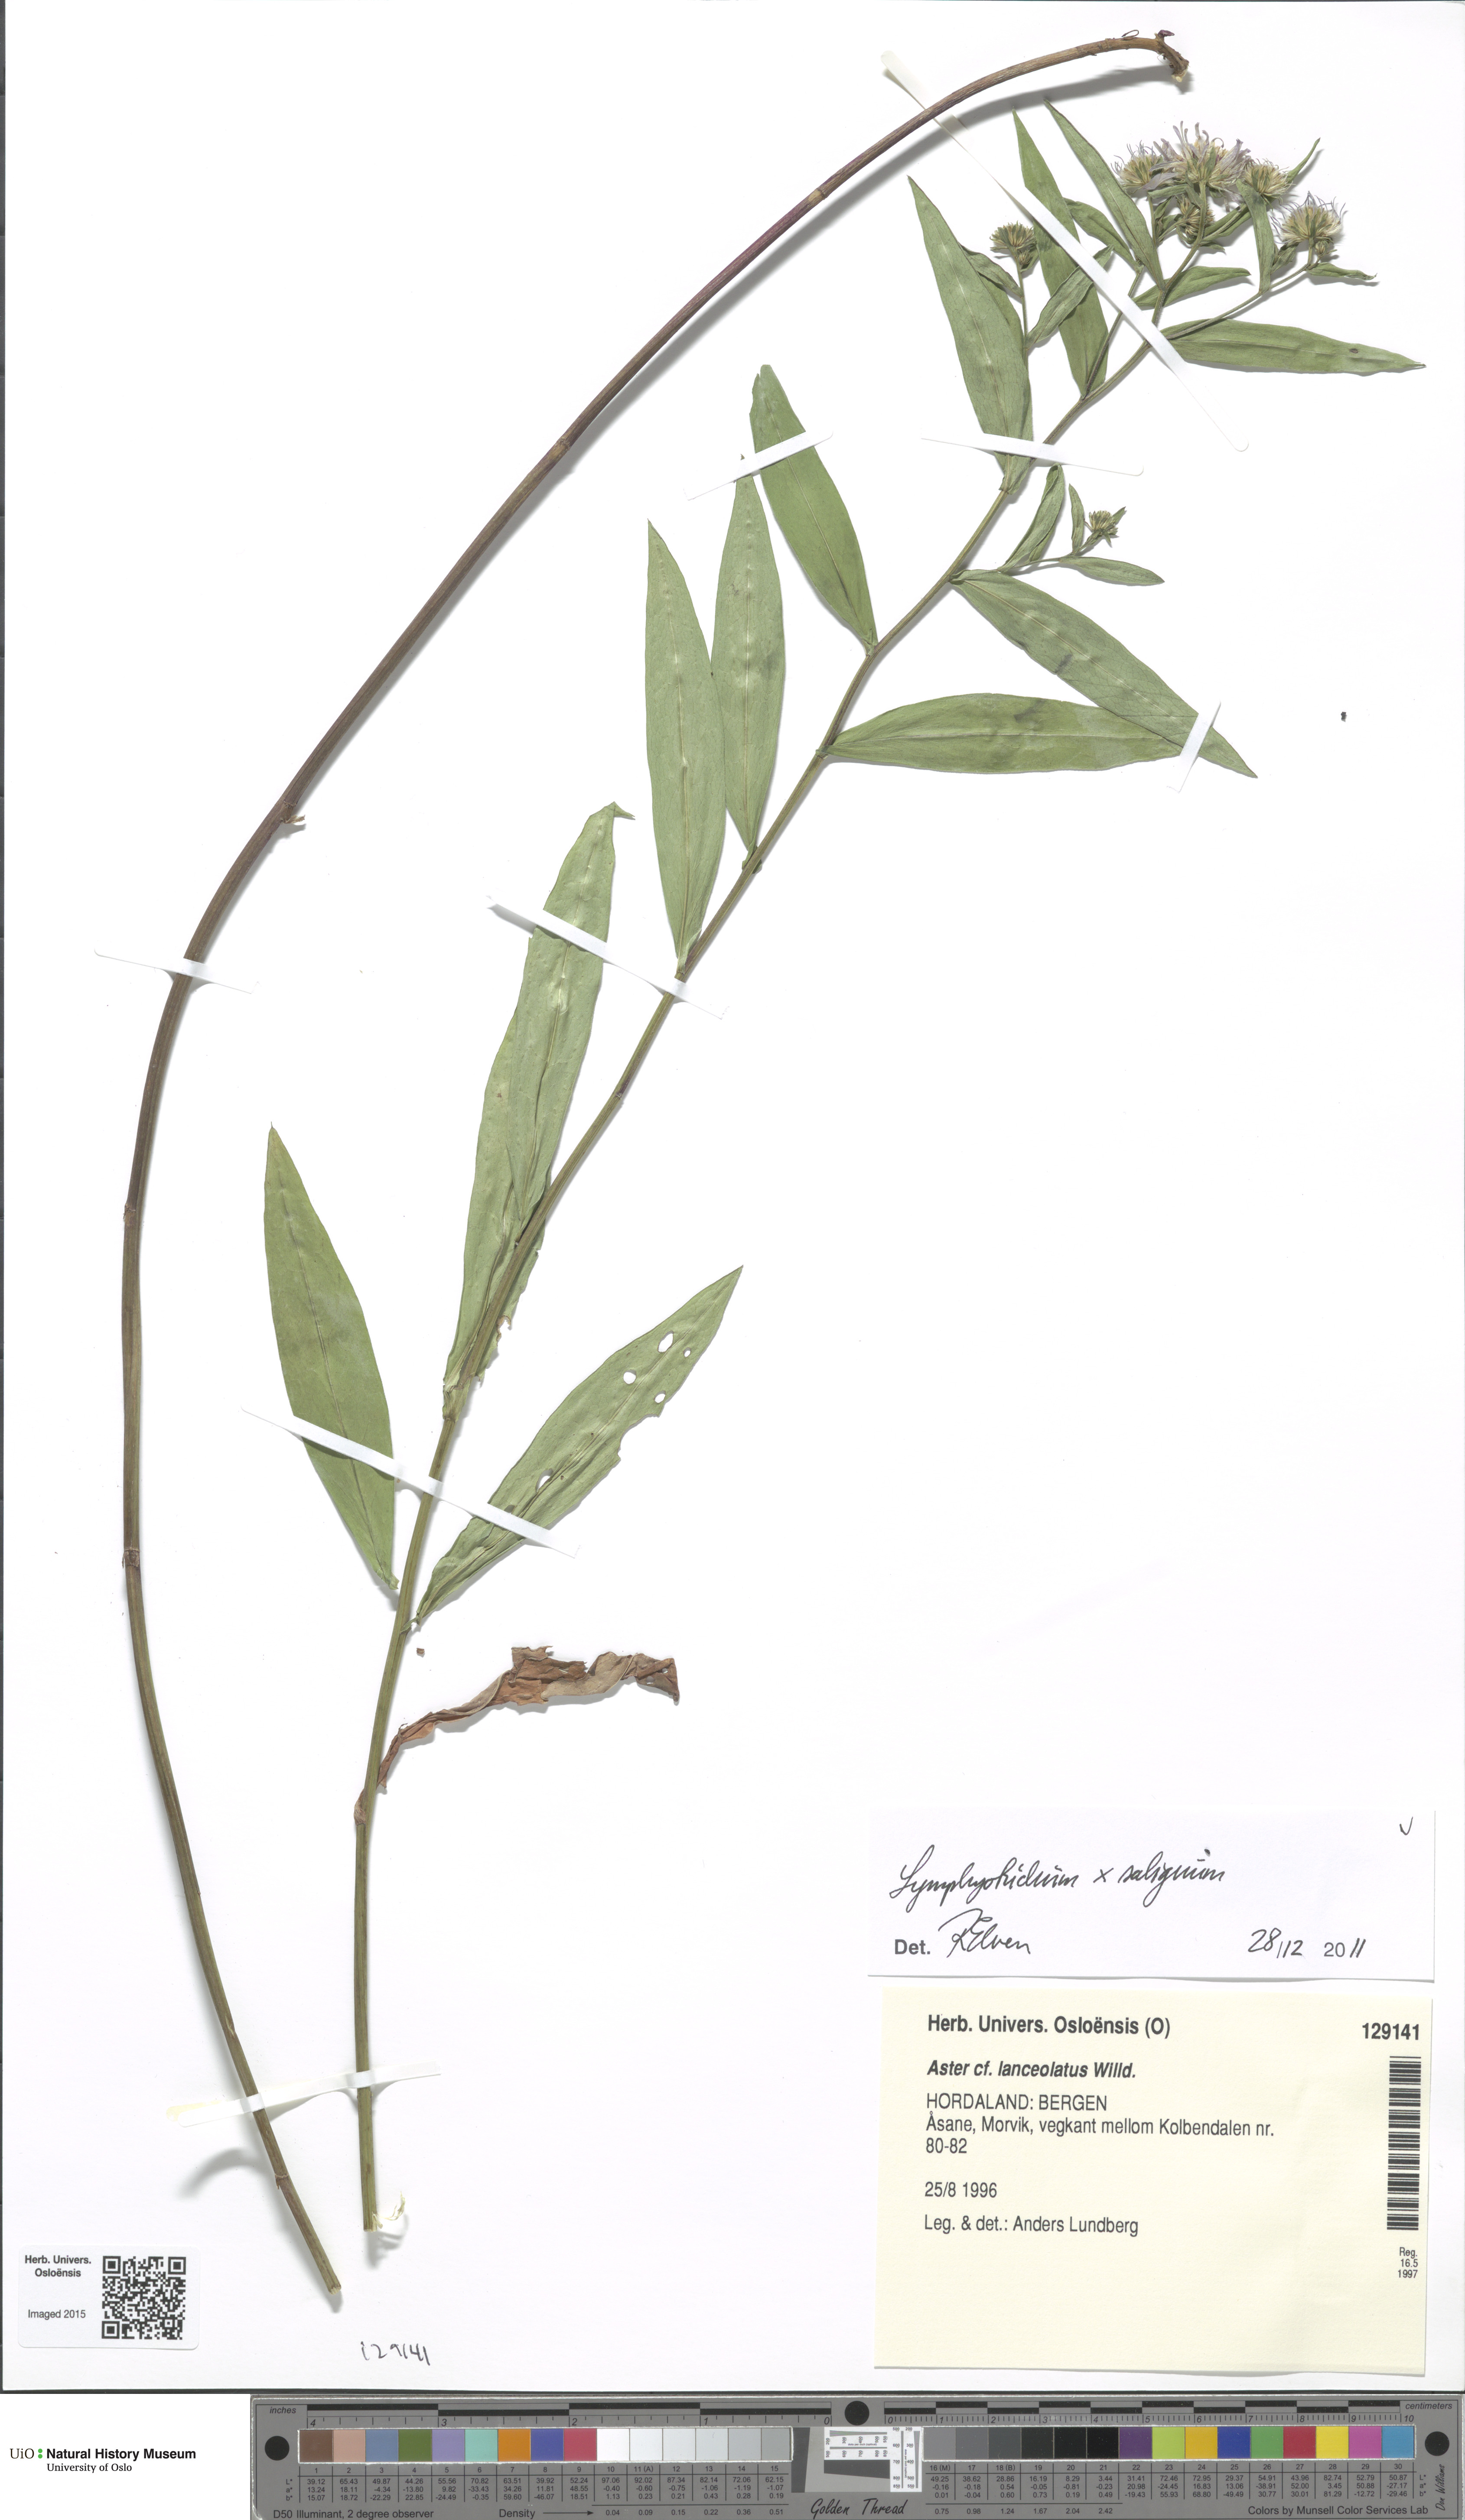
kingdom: Plantae
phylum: Tracheophyta
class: Magnoliopsida
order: Asterales
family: Asteraceae
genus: Symphyotrichum
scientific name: Symphyotrichum novi-belgii
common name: Michaelmas daisy
